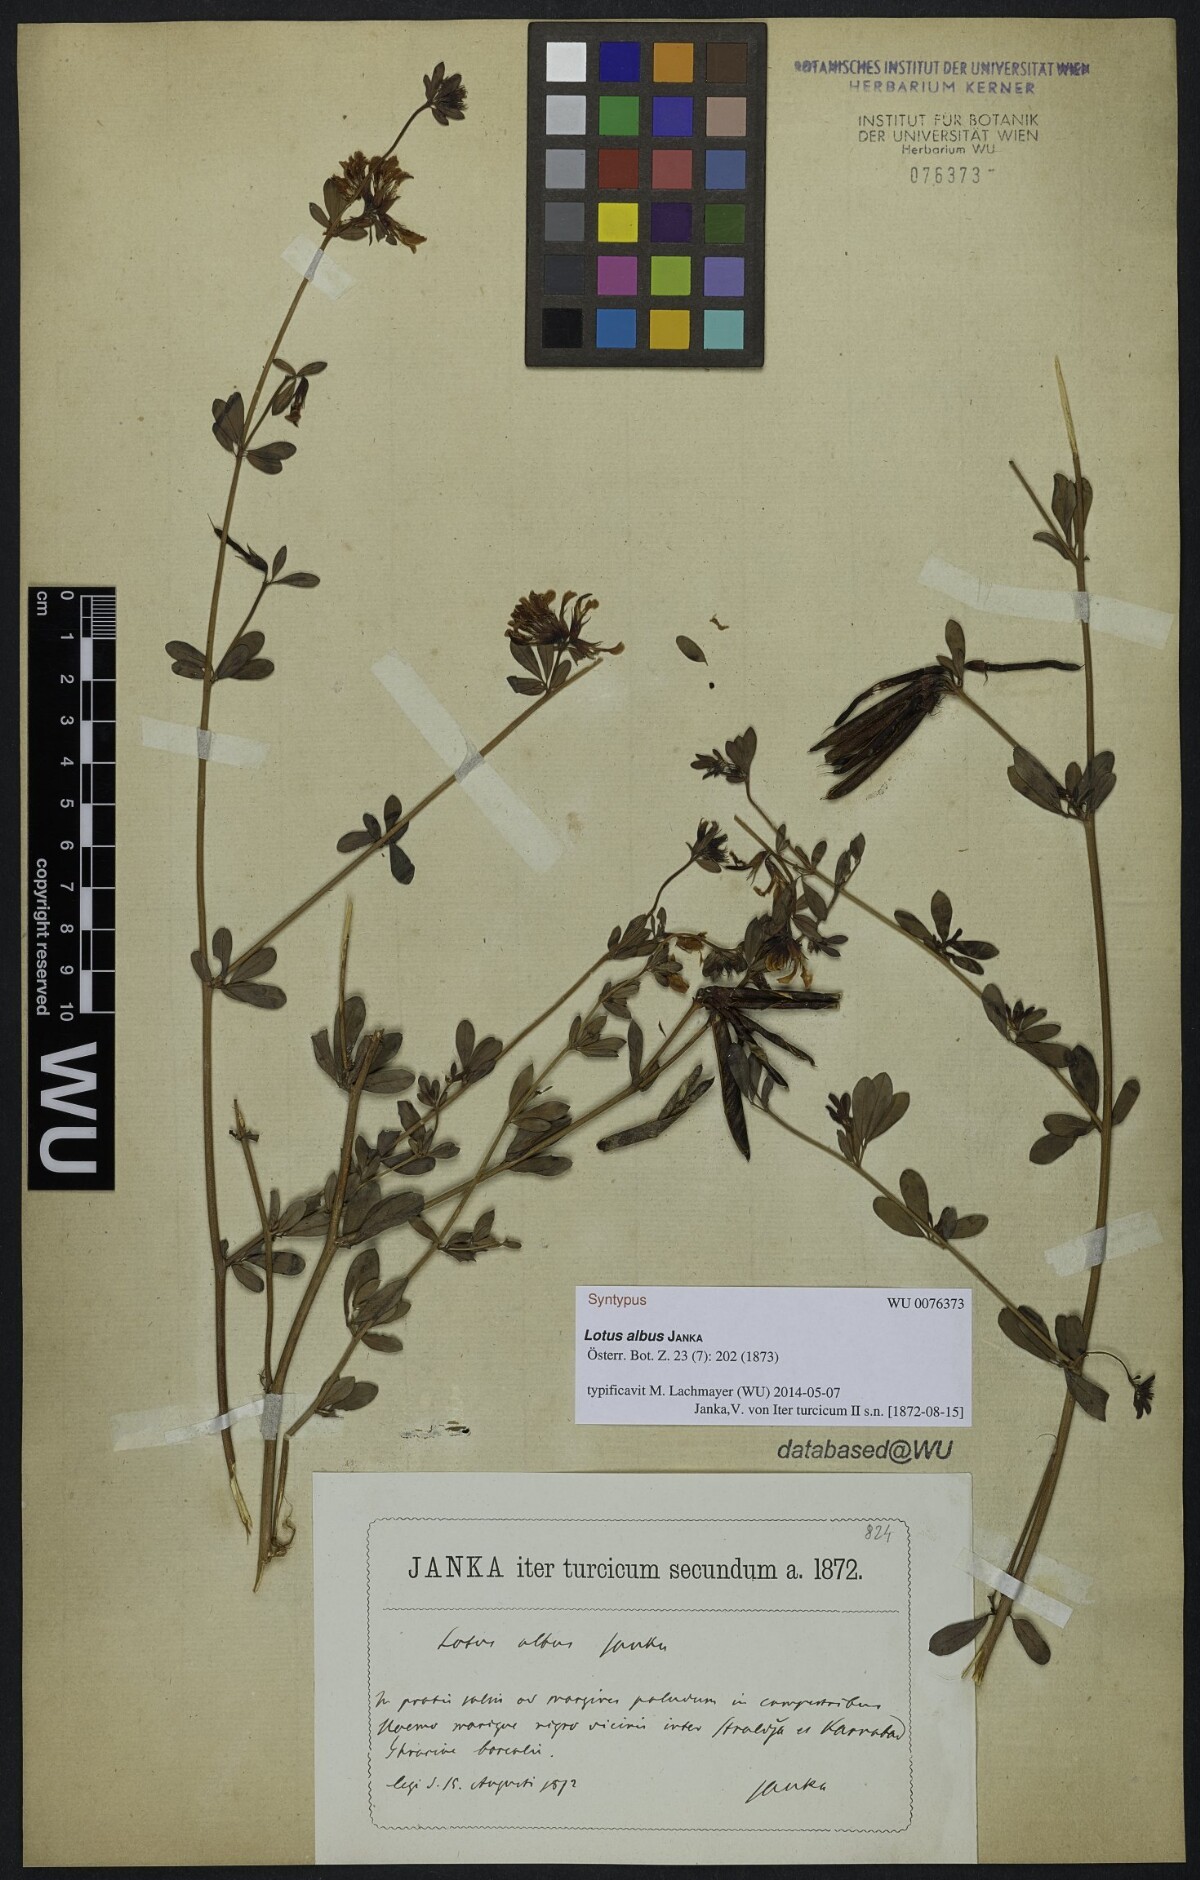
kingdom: Plantae
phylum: Tracheophyta
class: Magnoliopsida
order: Fabales
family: Fabaceae
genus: Lotus
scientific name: Lotus strictus
